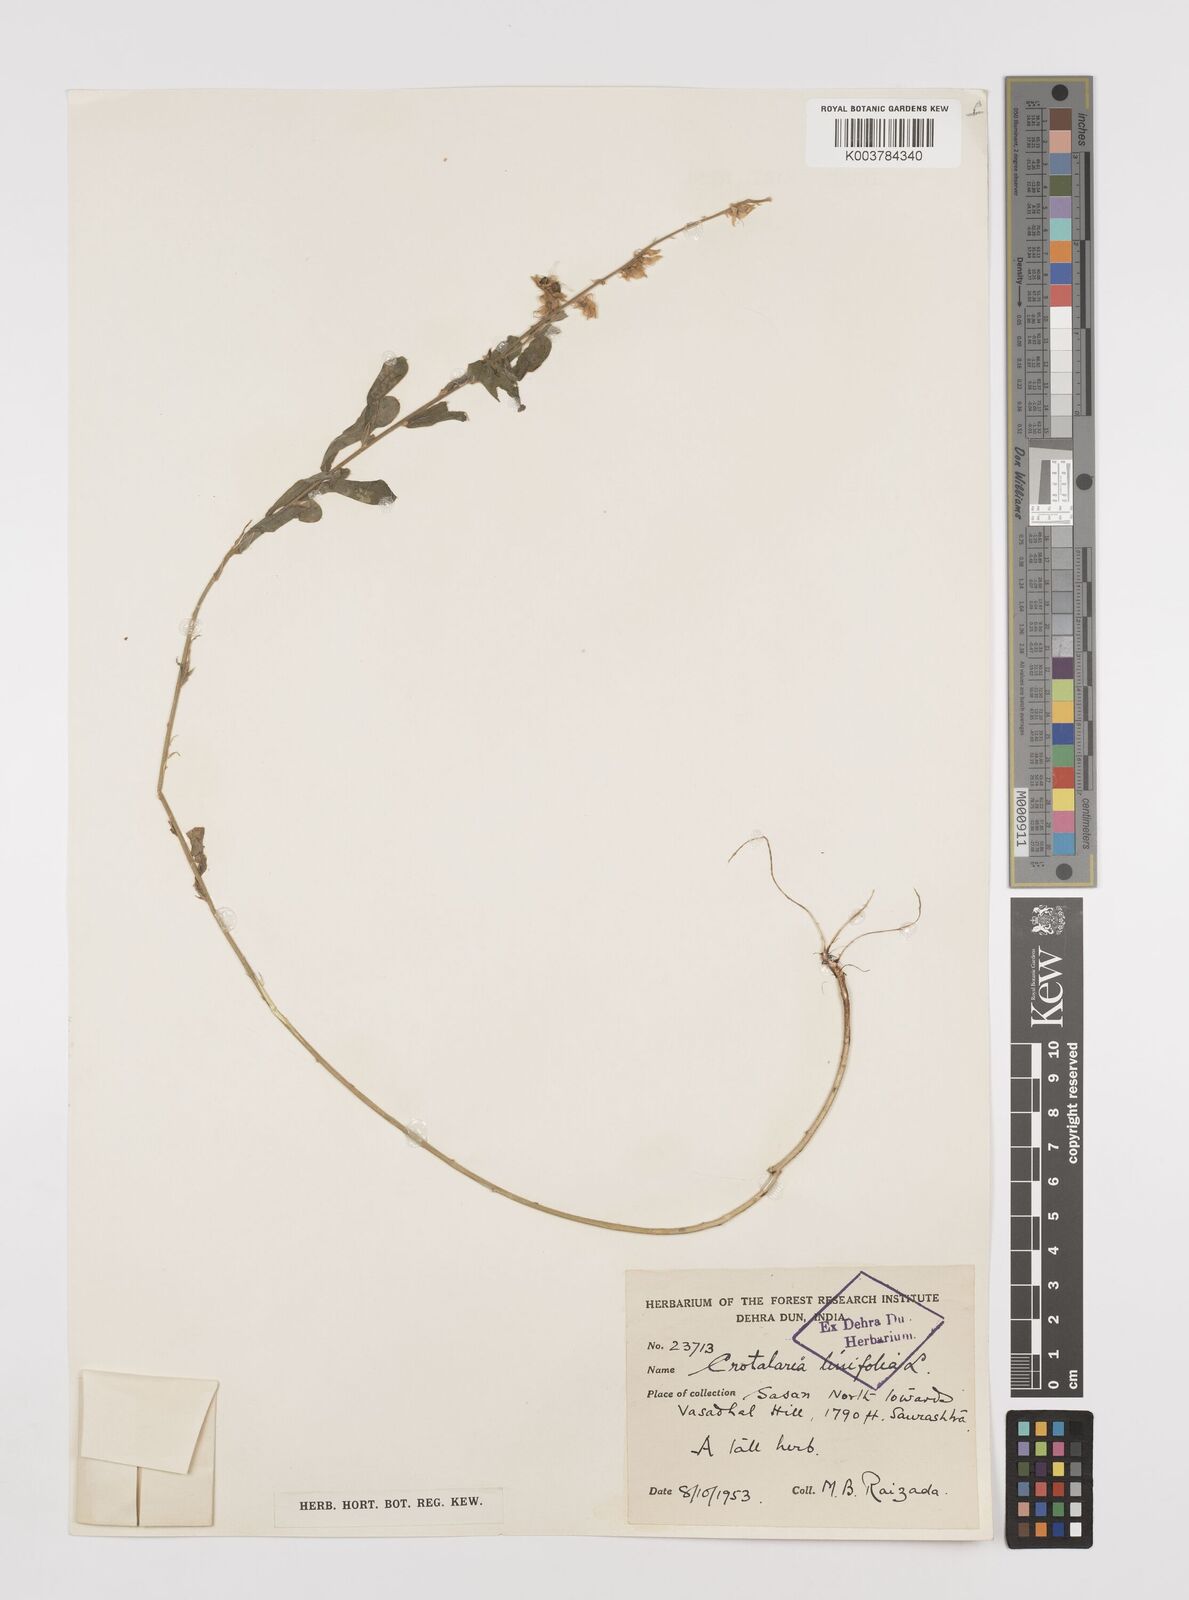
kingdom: Plantae
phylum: Tracheophyta
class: Magnoliopsida
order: Fabales
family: Fabaceae
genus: Crotalaria
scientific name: Crotalaria linifolia
